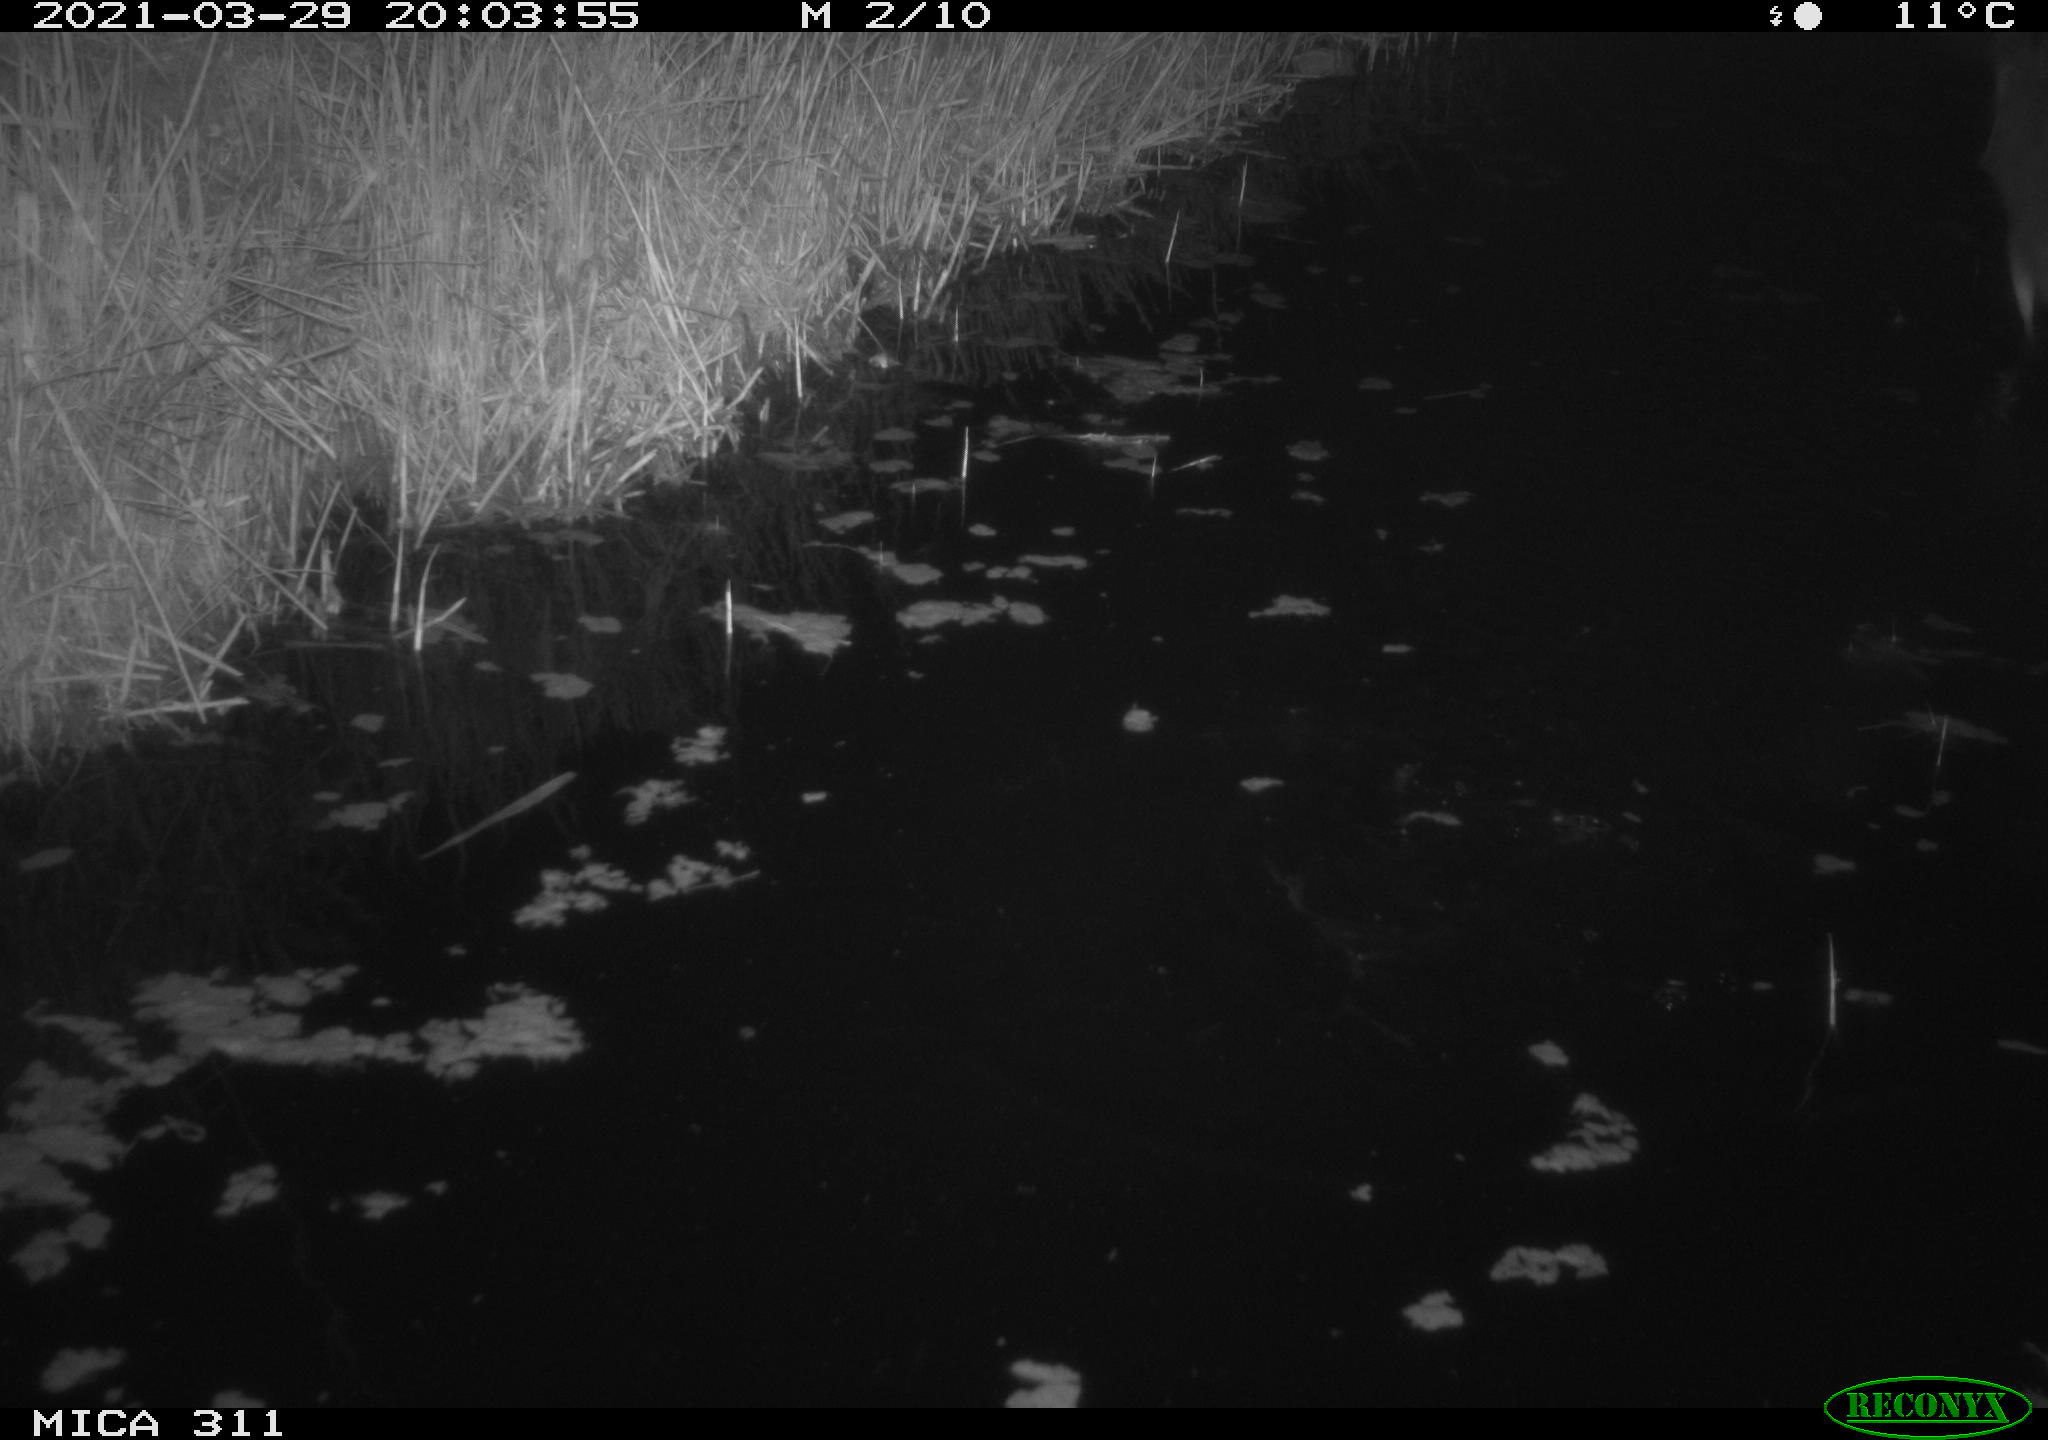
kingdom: Animalia
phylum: Chordata
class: Aves
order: Pelecaniformes
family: Ardeidae
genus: Ardea
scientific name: Ardea cinerea
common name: Grey heron
